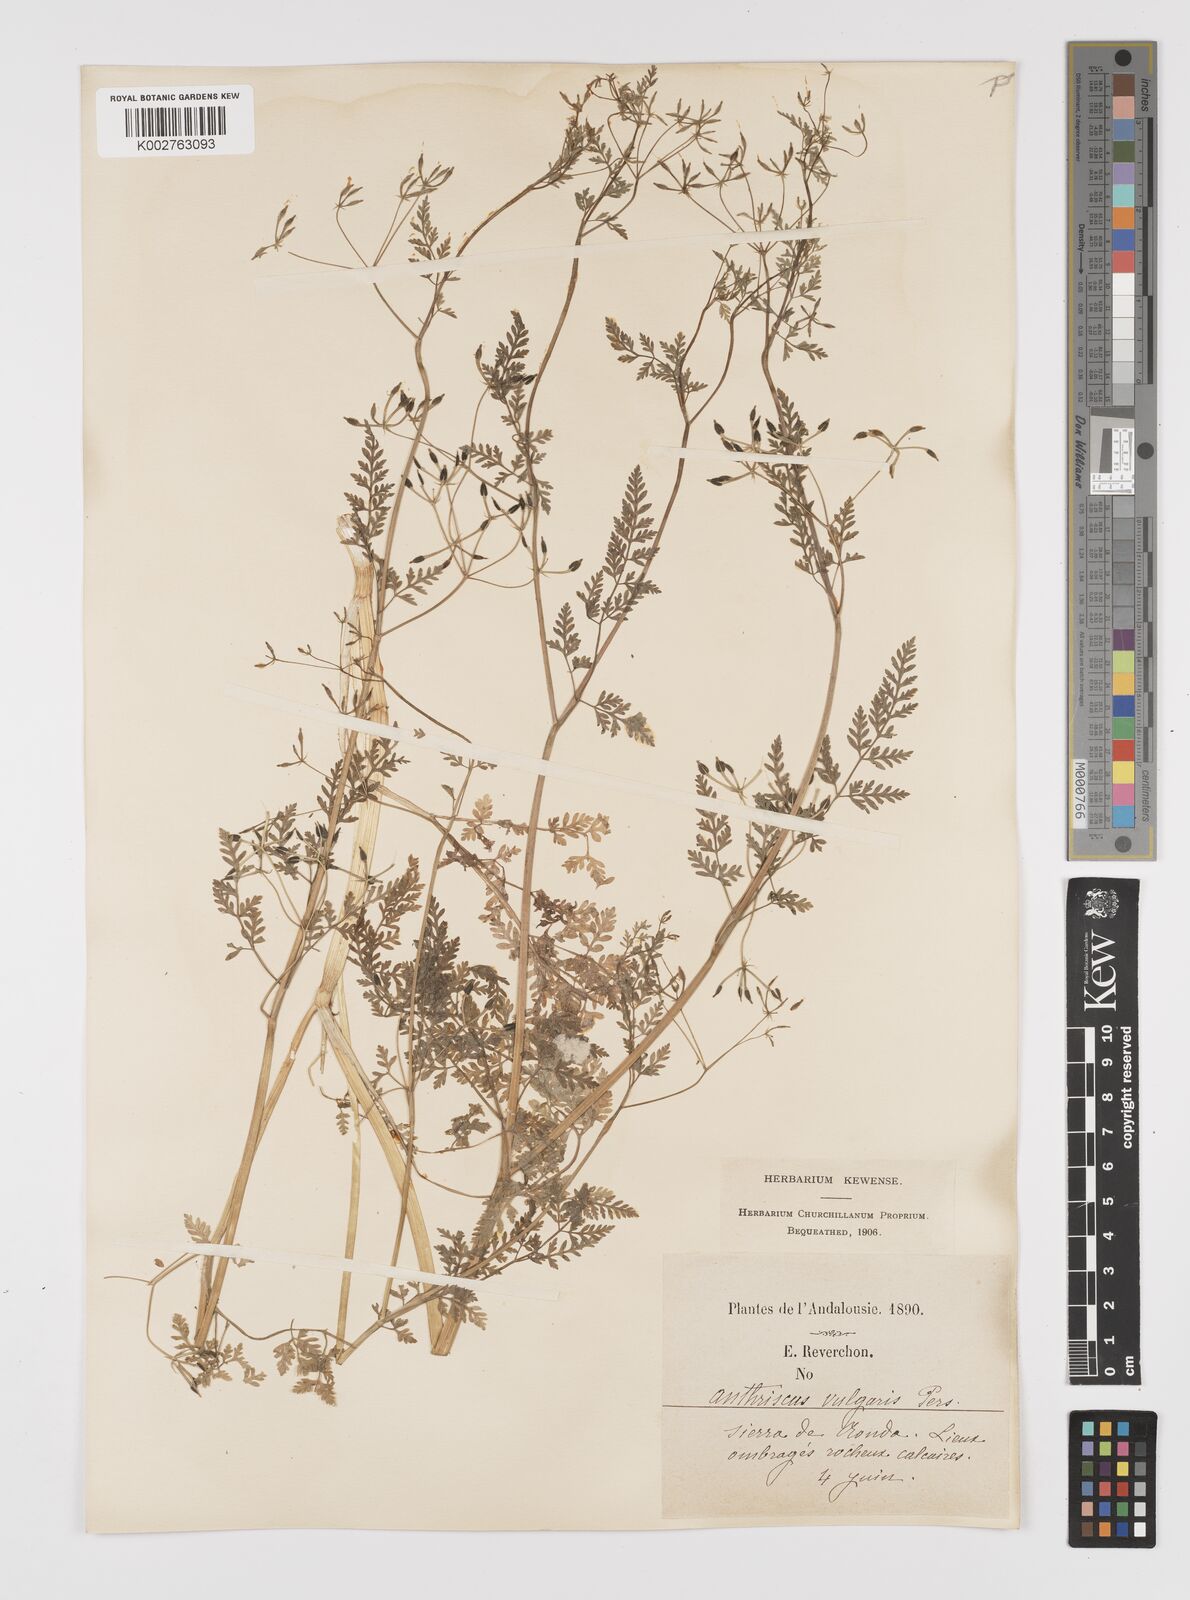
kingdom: Plantae
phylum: Tracheophyta
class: Magnoliopsida
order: Apiales
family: Apiaceae
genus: Anthriscus
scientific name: Anthriscus caucalis
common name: Bur chervil
